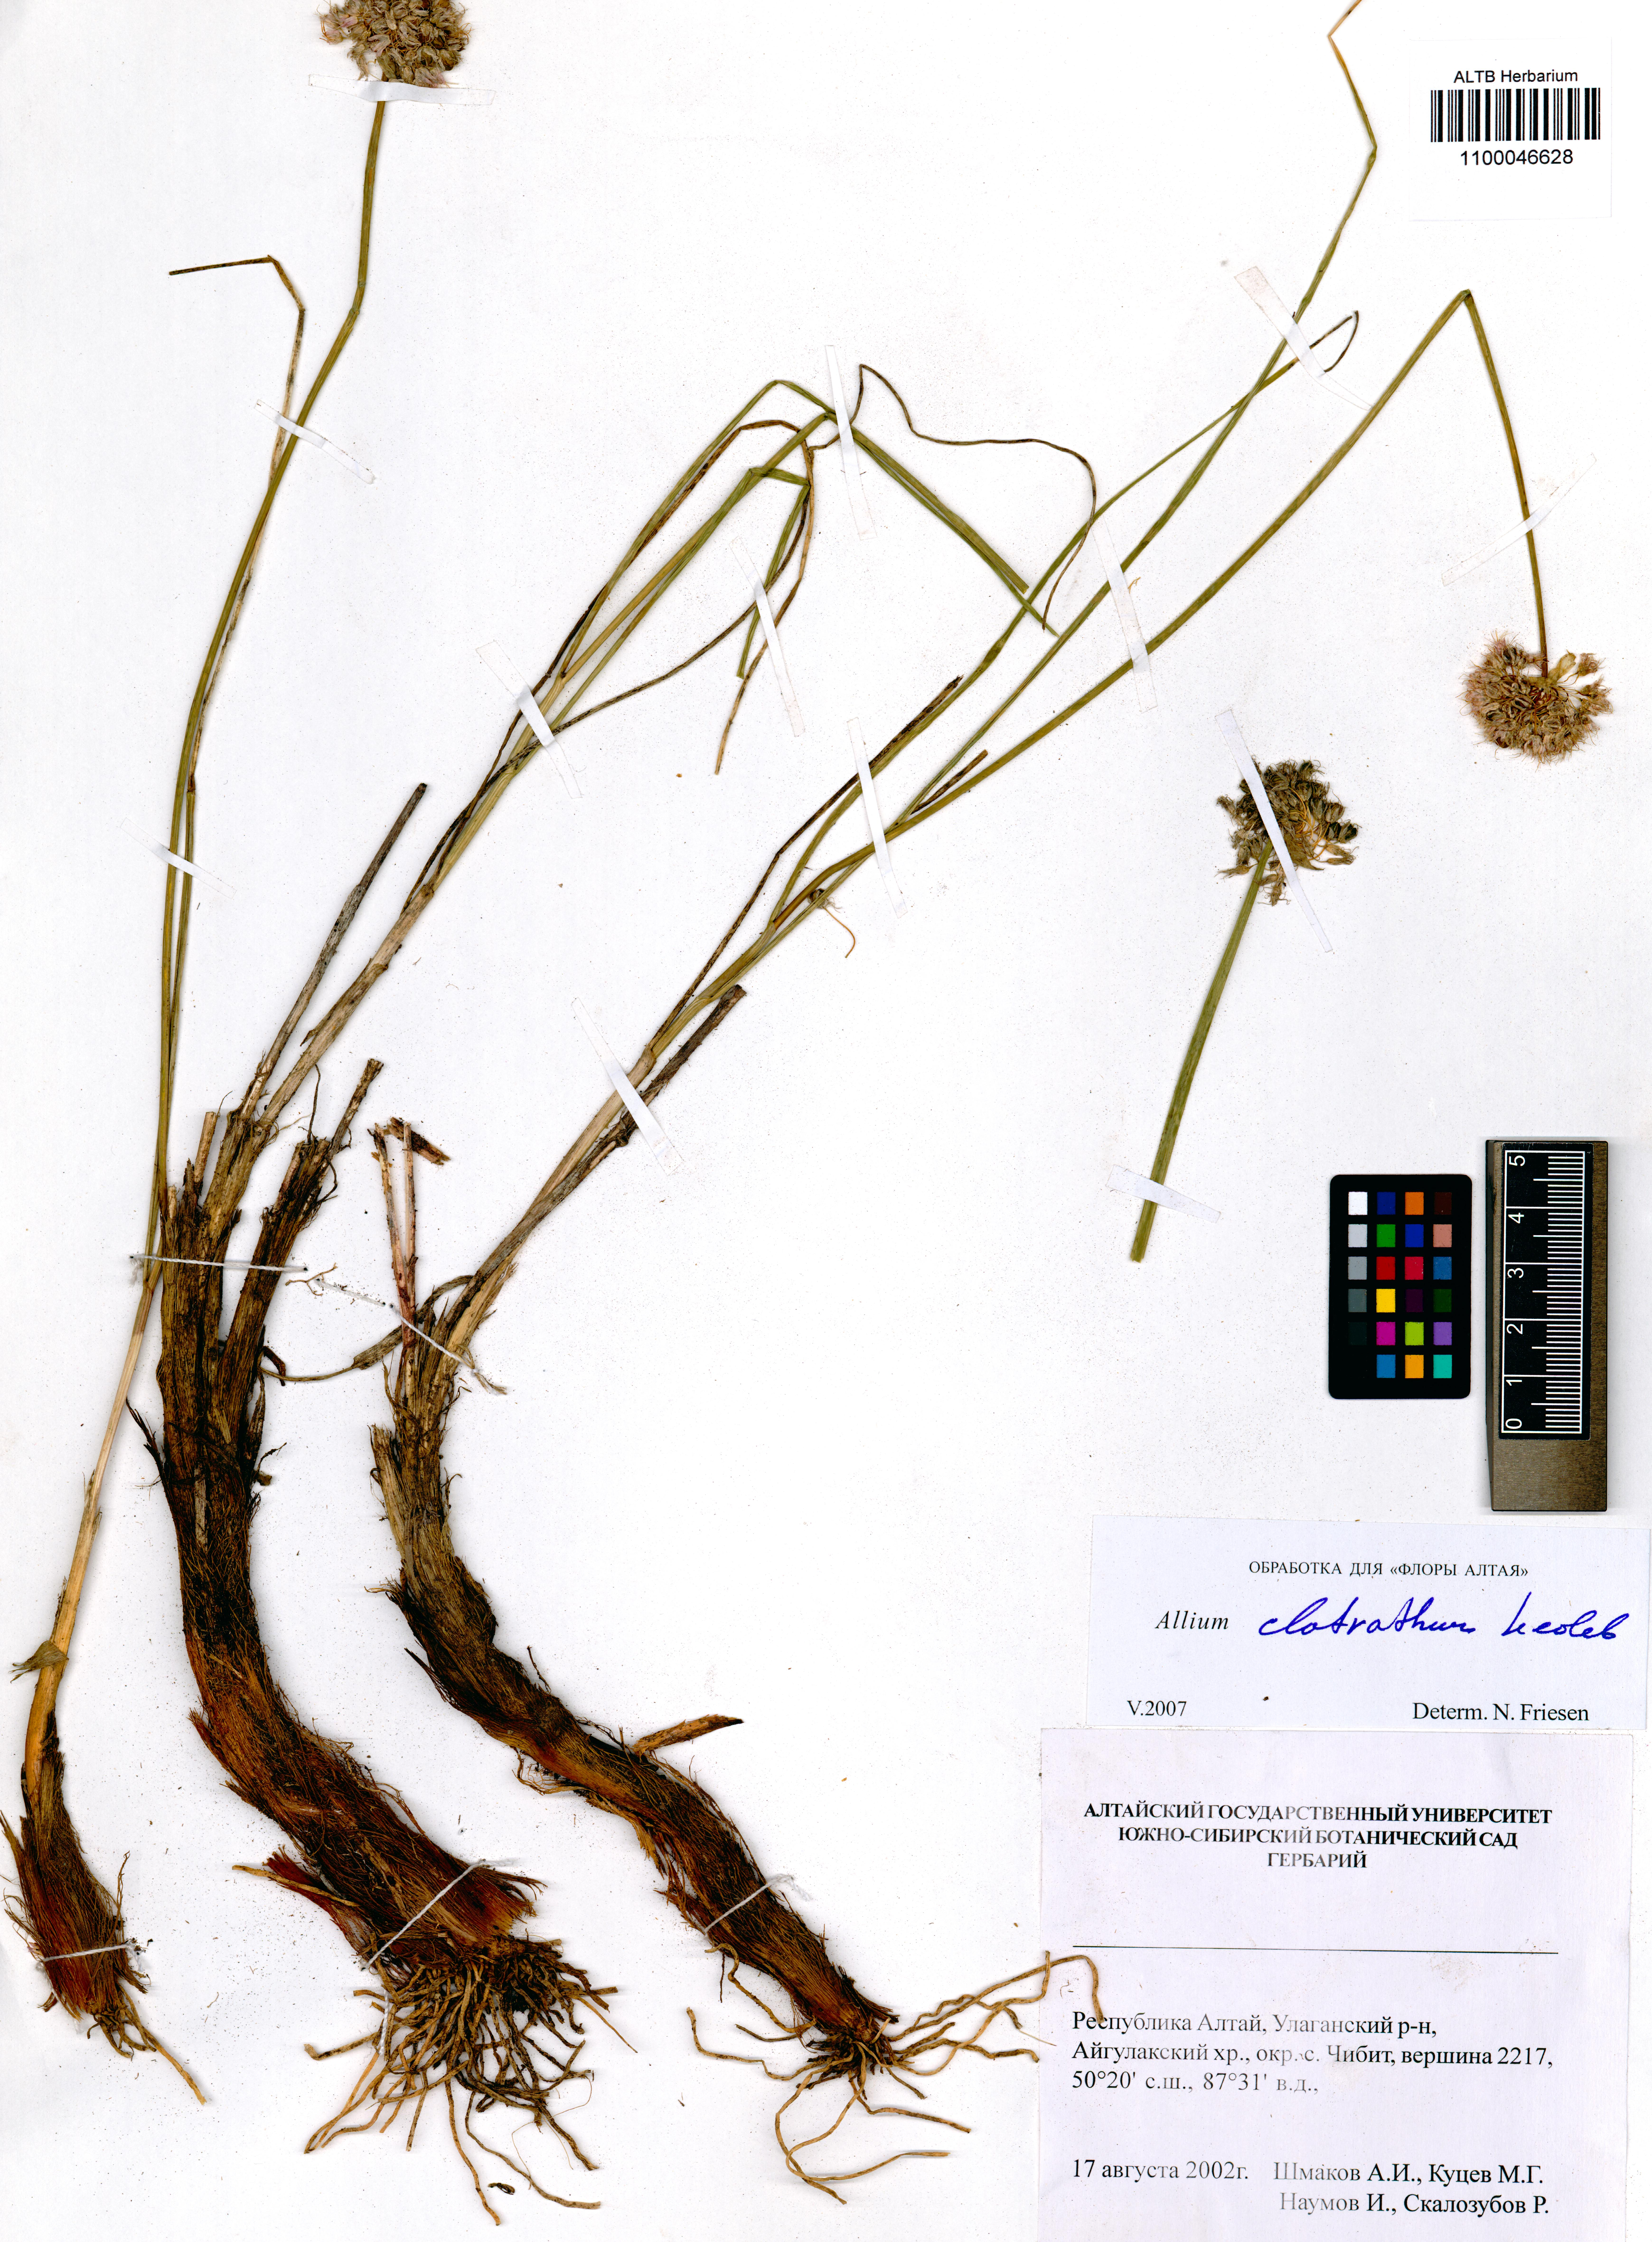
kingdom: Plantae
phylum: Tracheophyta
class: Liliopsida
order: Asparagales
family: Amaryllidaceae
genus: Allium
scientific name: Allium clathratum
